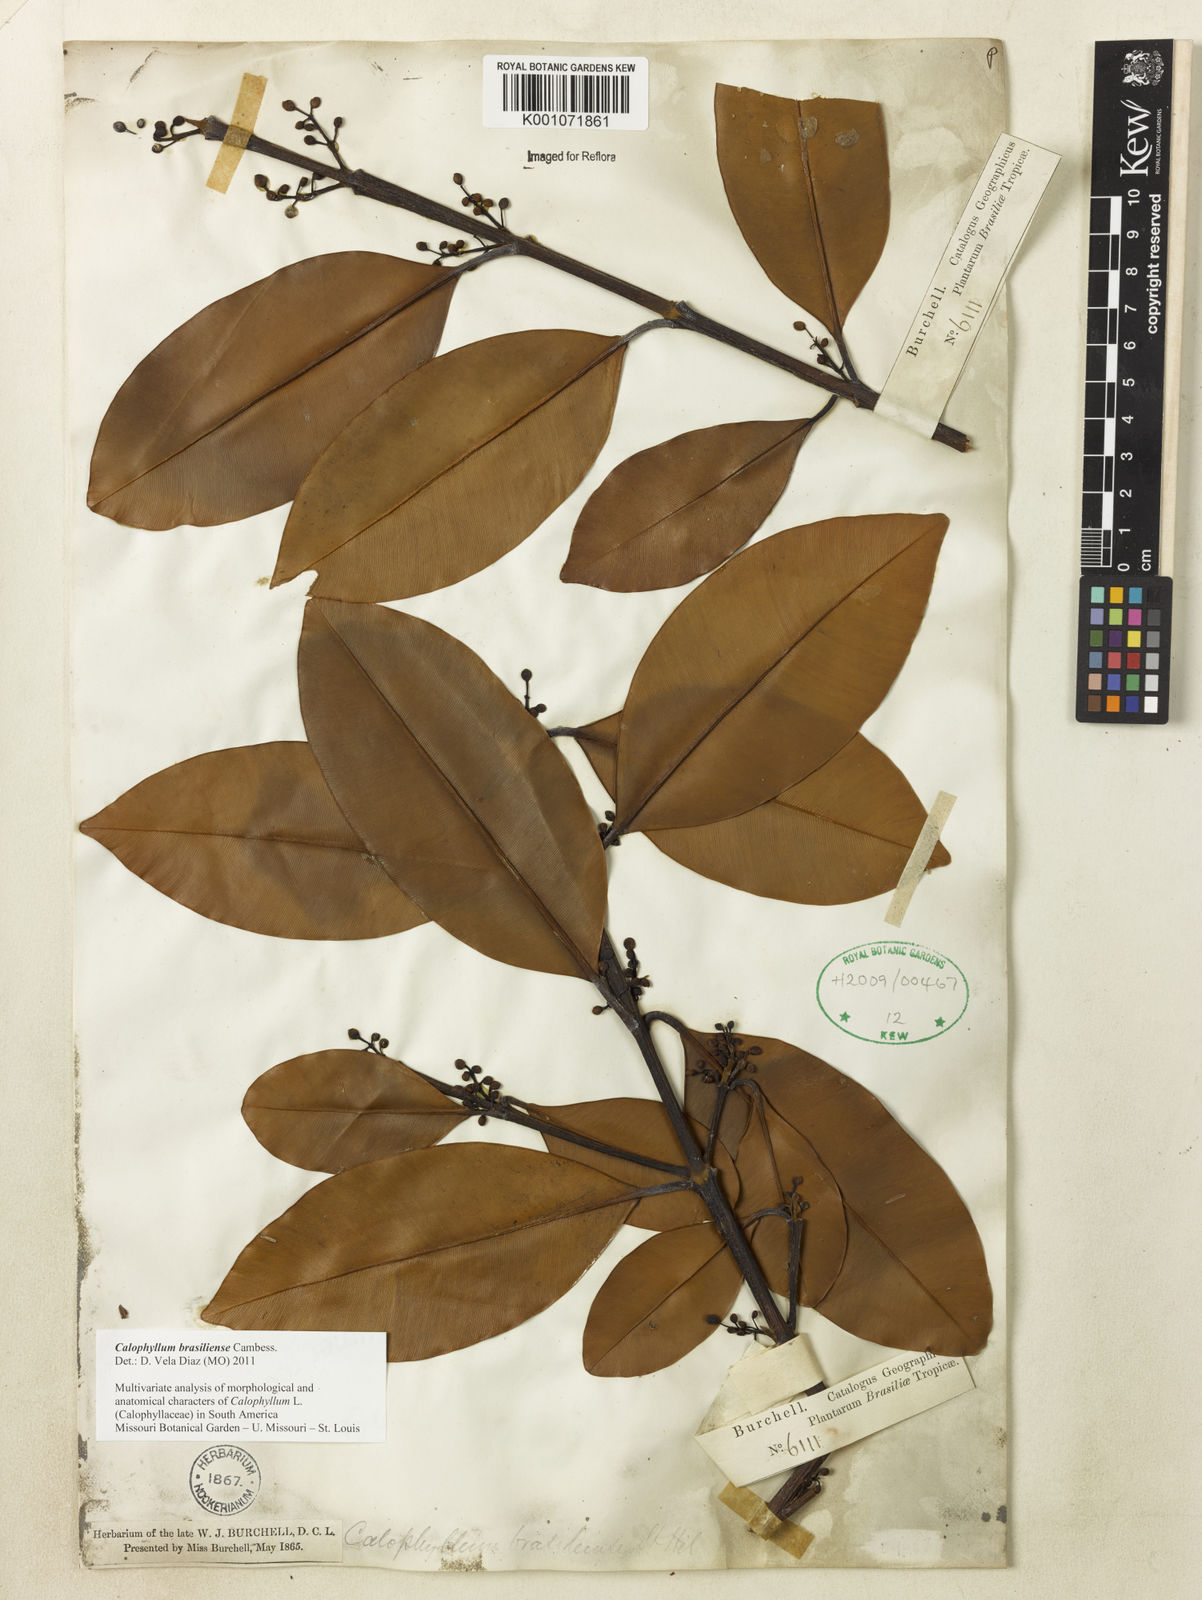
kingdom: Plantae
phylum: Tracheophyta
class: Magnoliopsida
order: Malpighiales
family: Calophyllaceae
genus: Calophyllum
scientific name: Calophyllum brasiliense
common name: Santa maria
